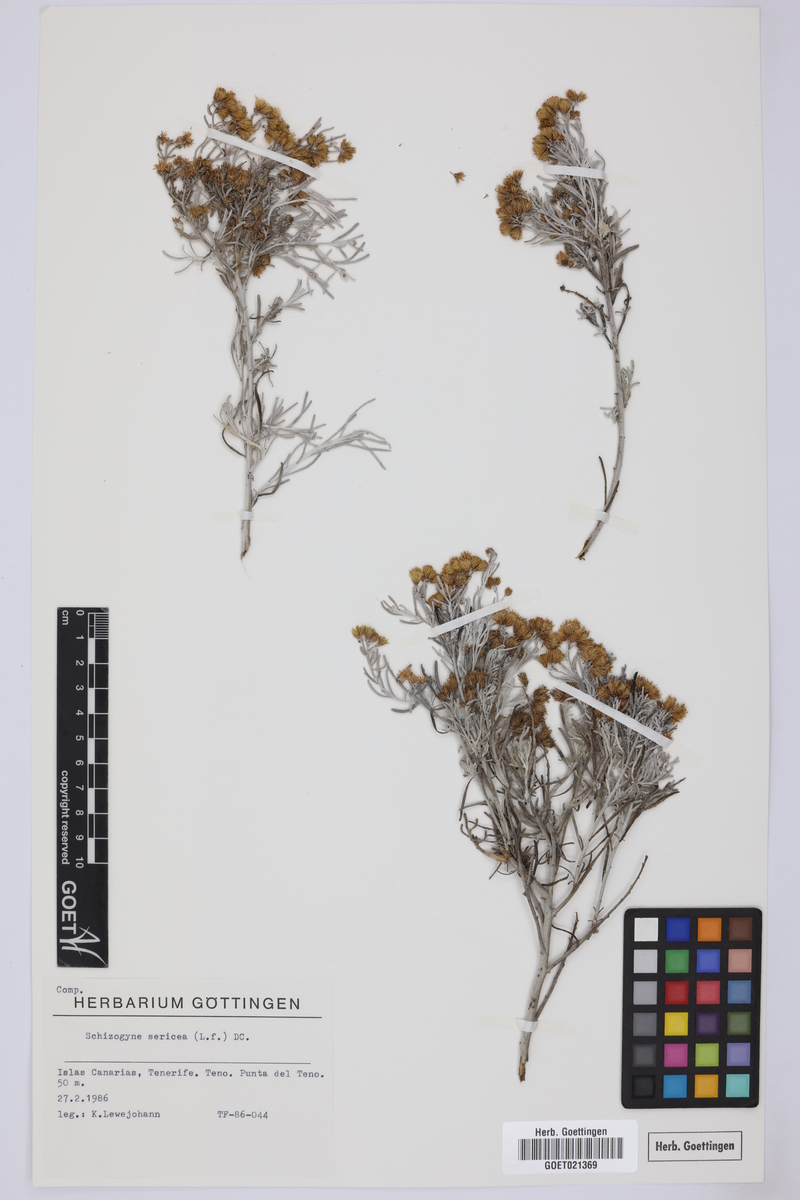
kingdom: Plantae
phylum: Tracheophyta
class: Magnoliopsida
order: Asterales
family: Asteraceae
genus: Schizogyne
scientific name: Schizogyne sericea
